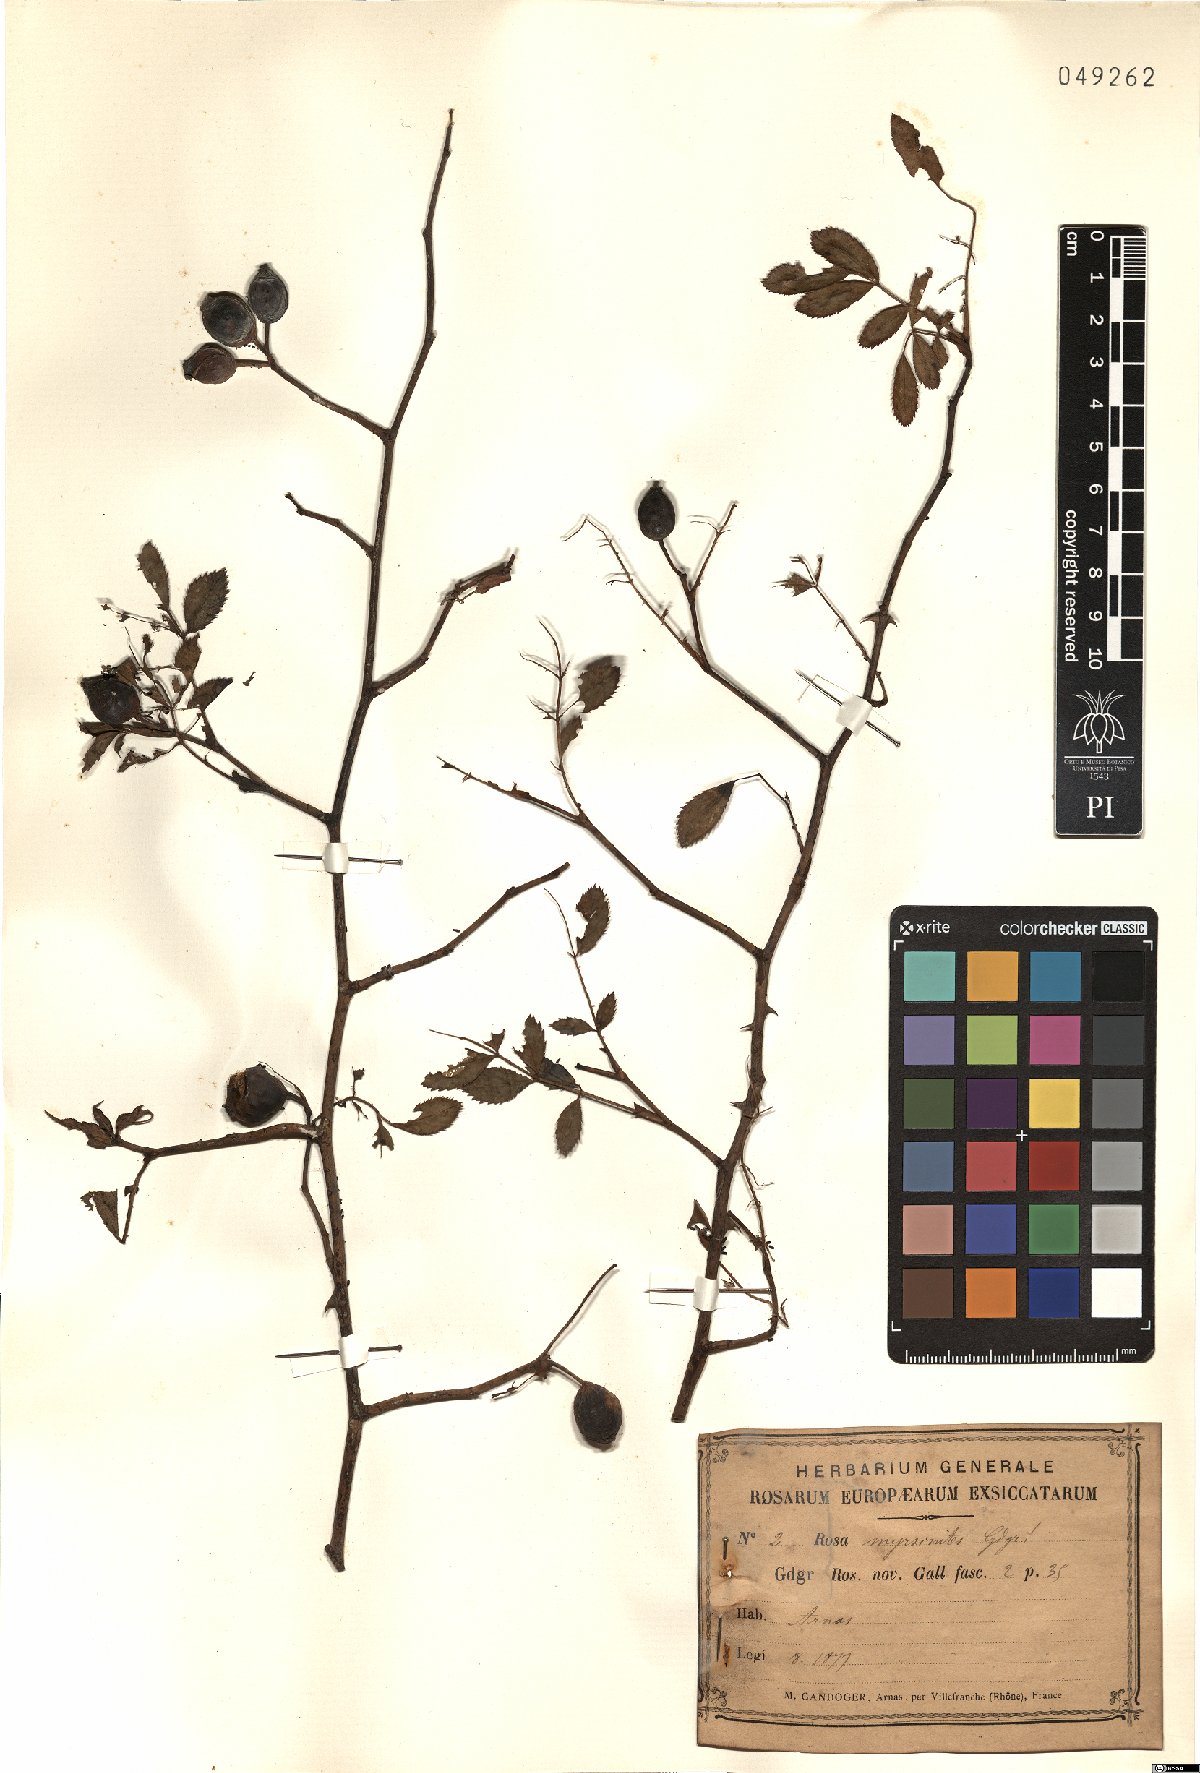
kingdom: Plantae
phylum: Tracheophyta
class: Magnoliopsida
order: Rosales
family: Rosaceae
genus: Rosa
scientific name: Rosa myrsinites
